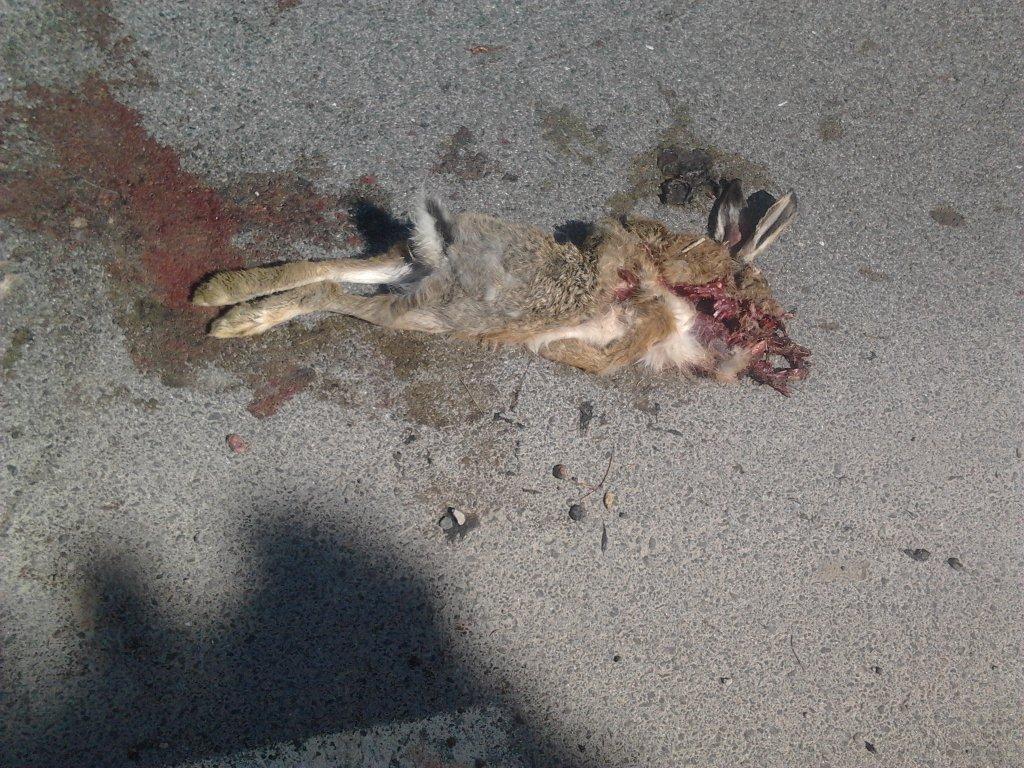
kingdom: Animalia
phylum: Chordata
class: Mammalia
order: Lagomorpha
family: Leporidae
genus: Lepus
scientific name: Lepus europaeus
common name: European hare
